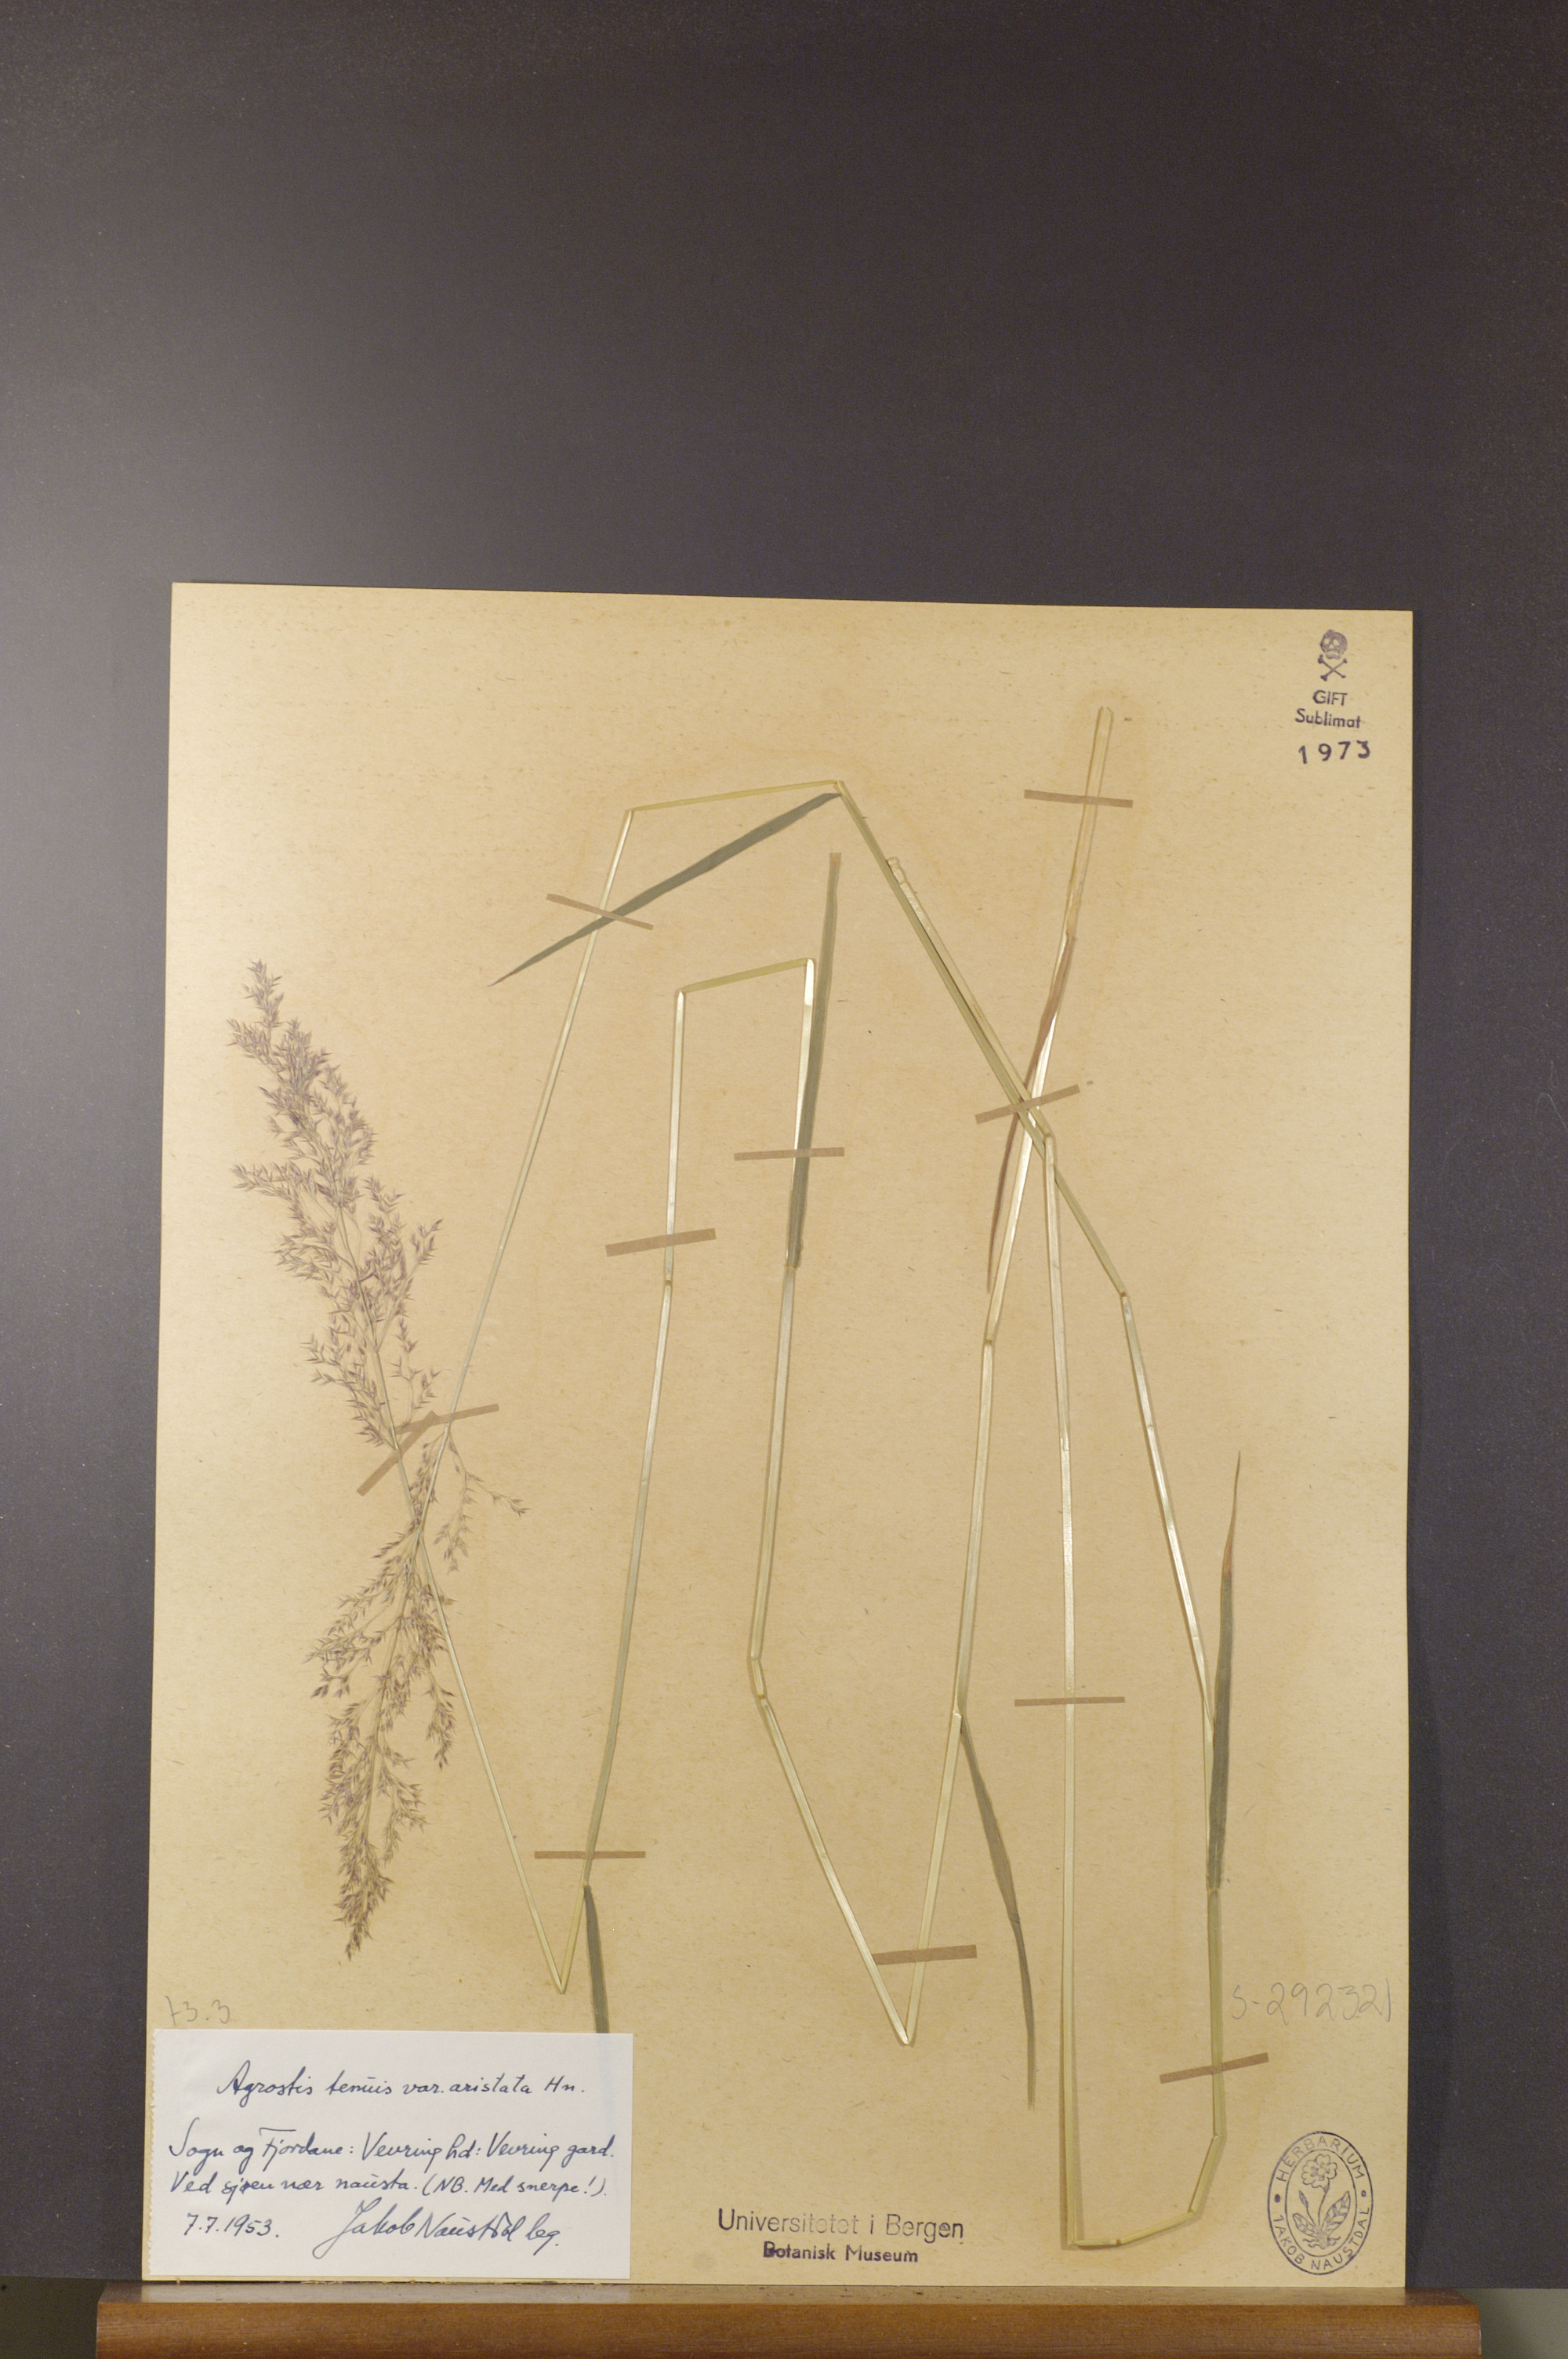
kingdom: Plantae
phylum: Tracheophyta
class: Liliopsida
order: Poales
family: Poaceae
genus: Agrostis
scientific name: Agrostis capillaris
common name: Colonial bentgrass
